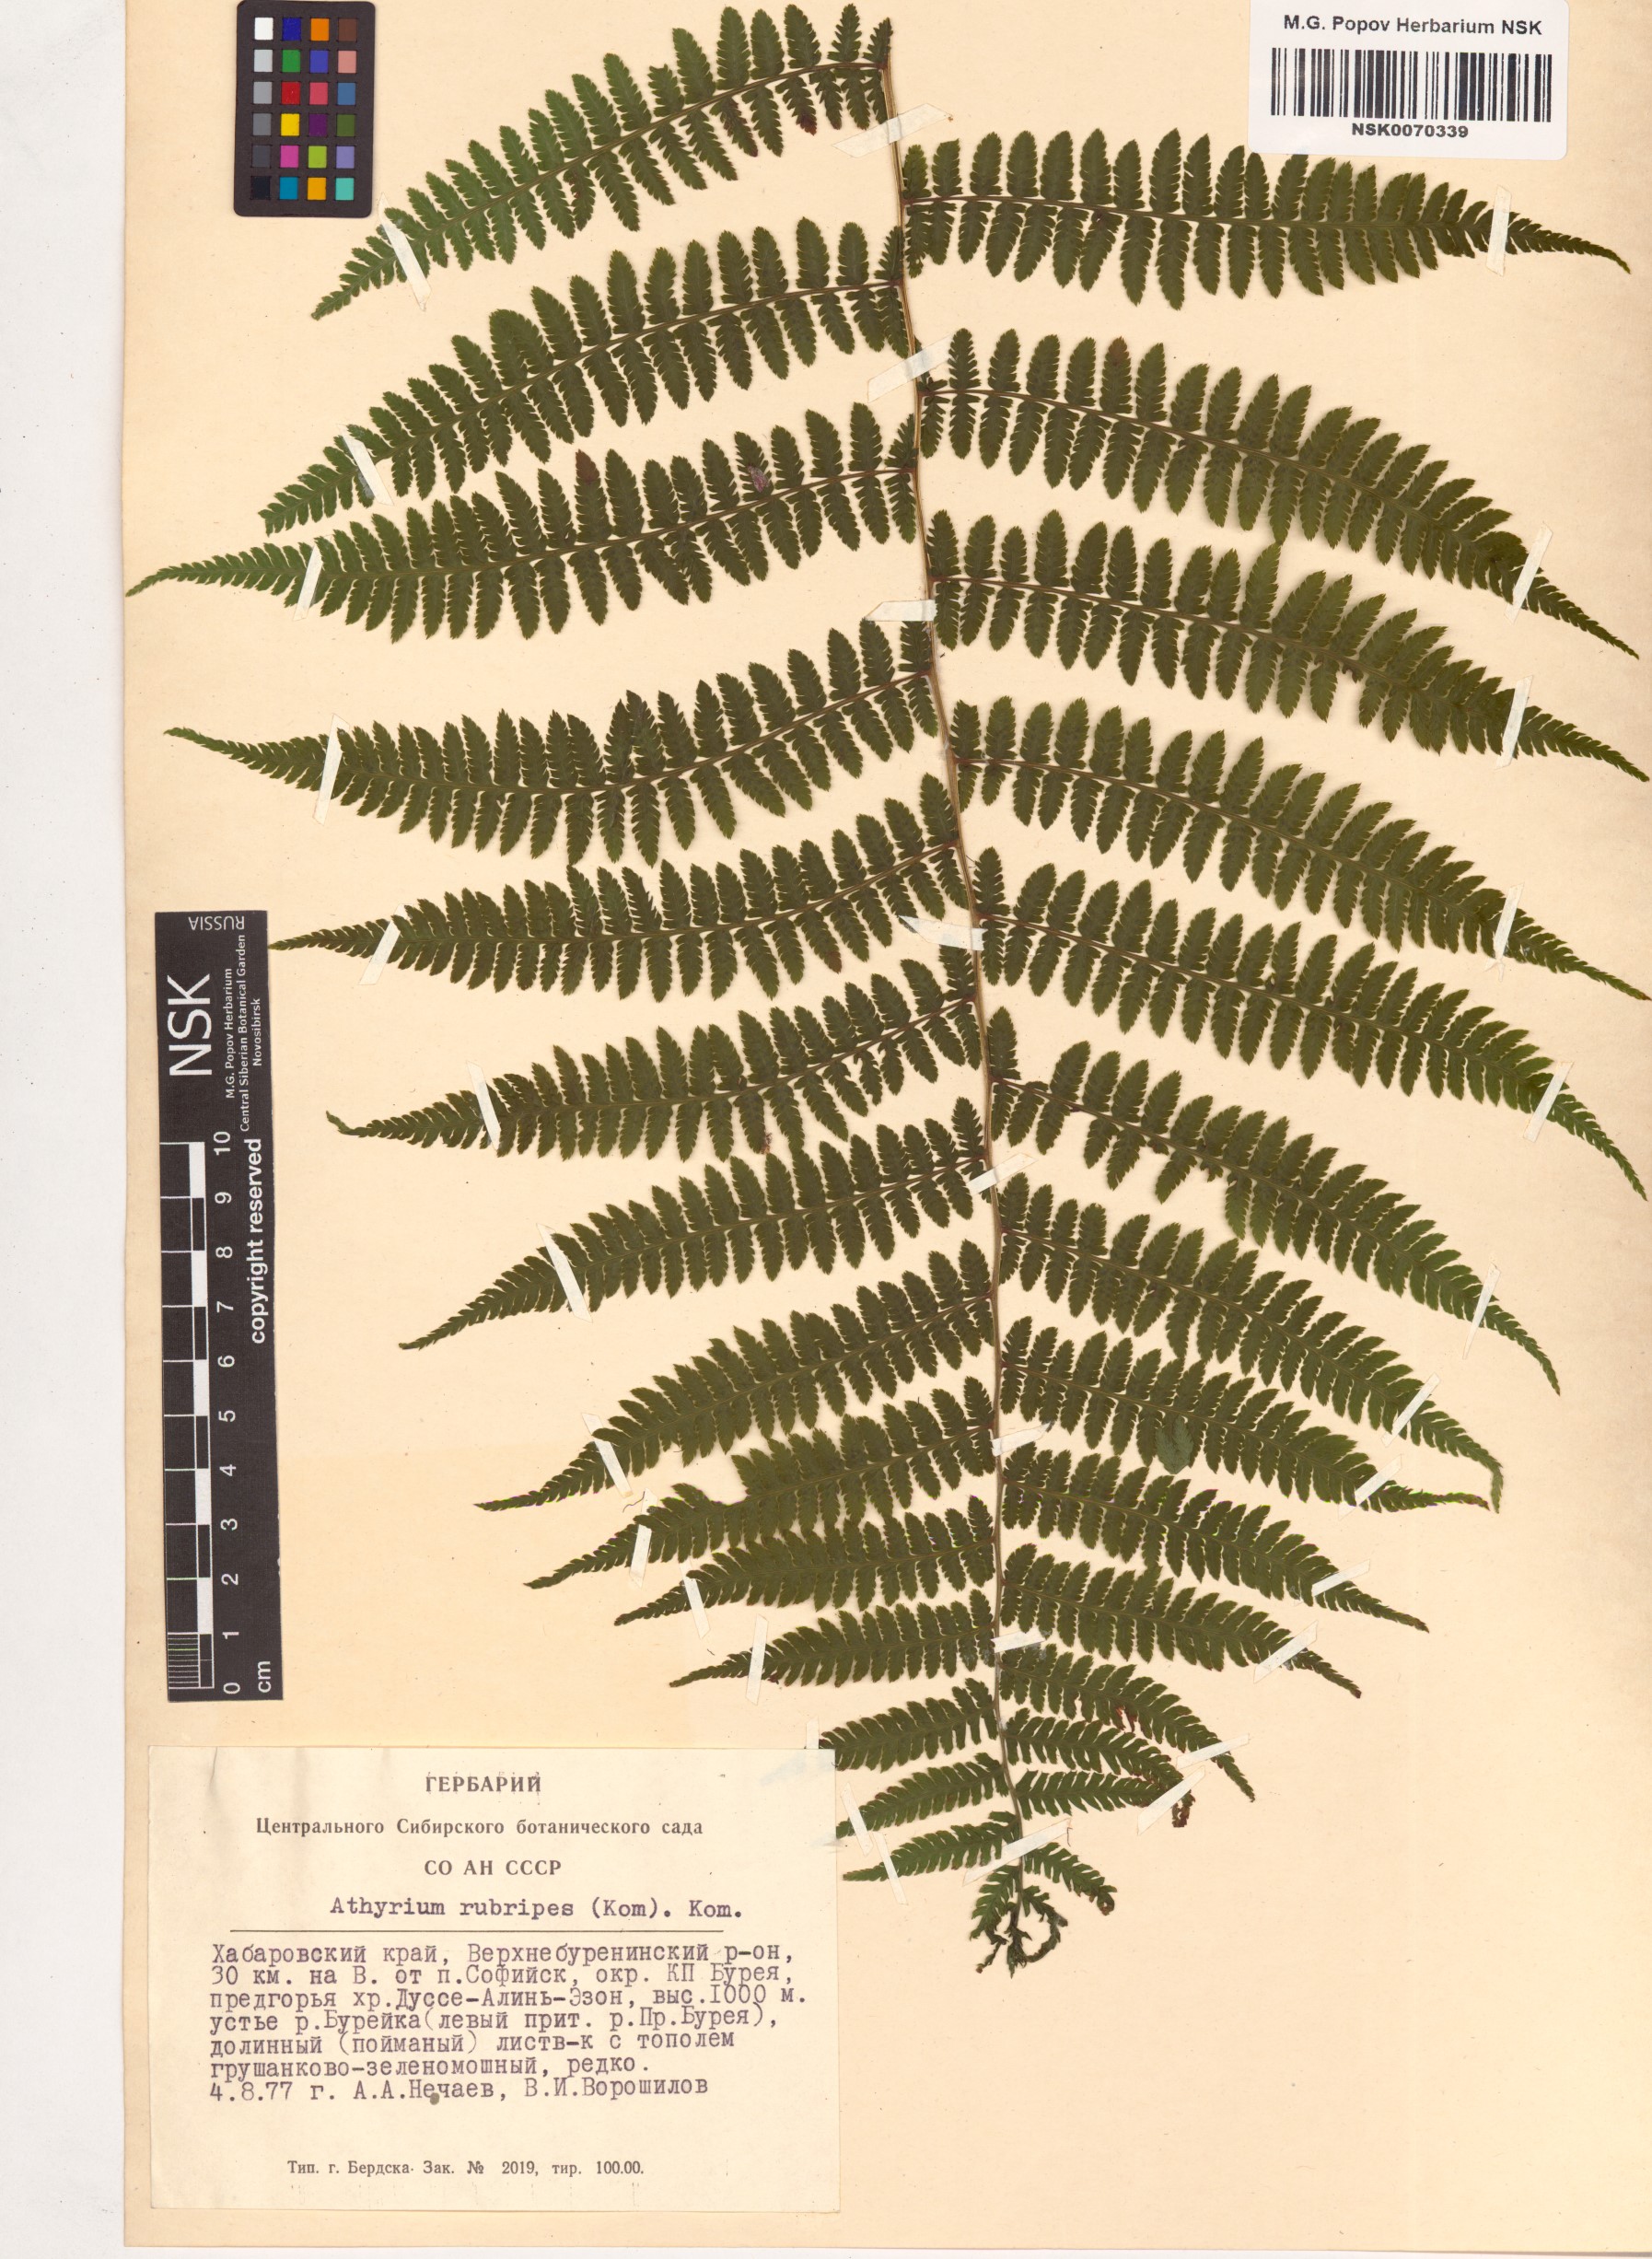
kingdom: Plantae
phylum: Tracheophyta
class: Polypodiopsida
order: Polypodiales
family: Athyriaceae
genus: Athyrium
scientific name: Athyrium rubripes
